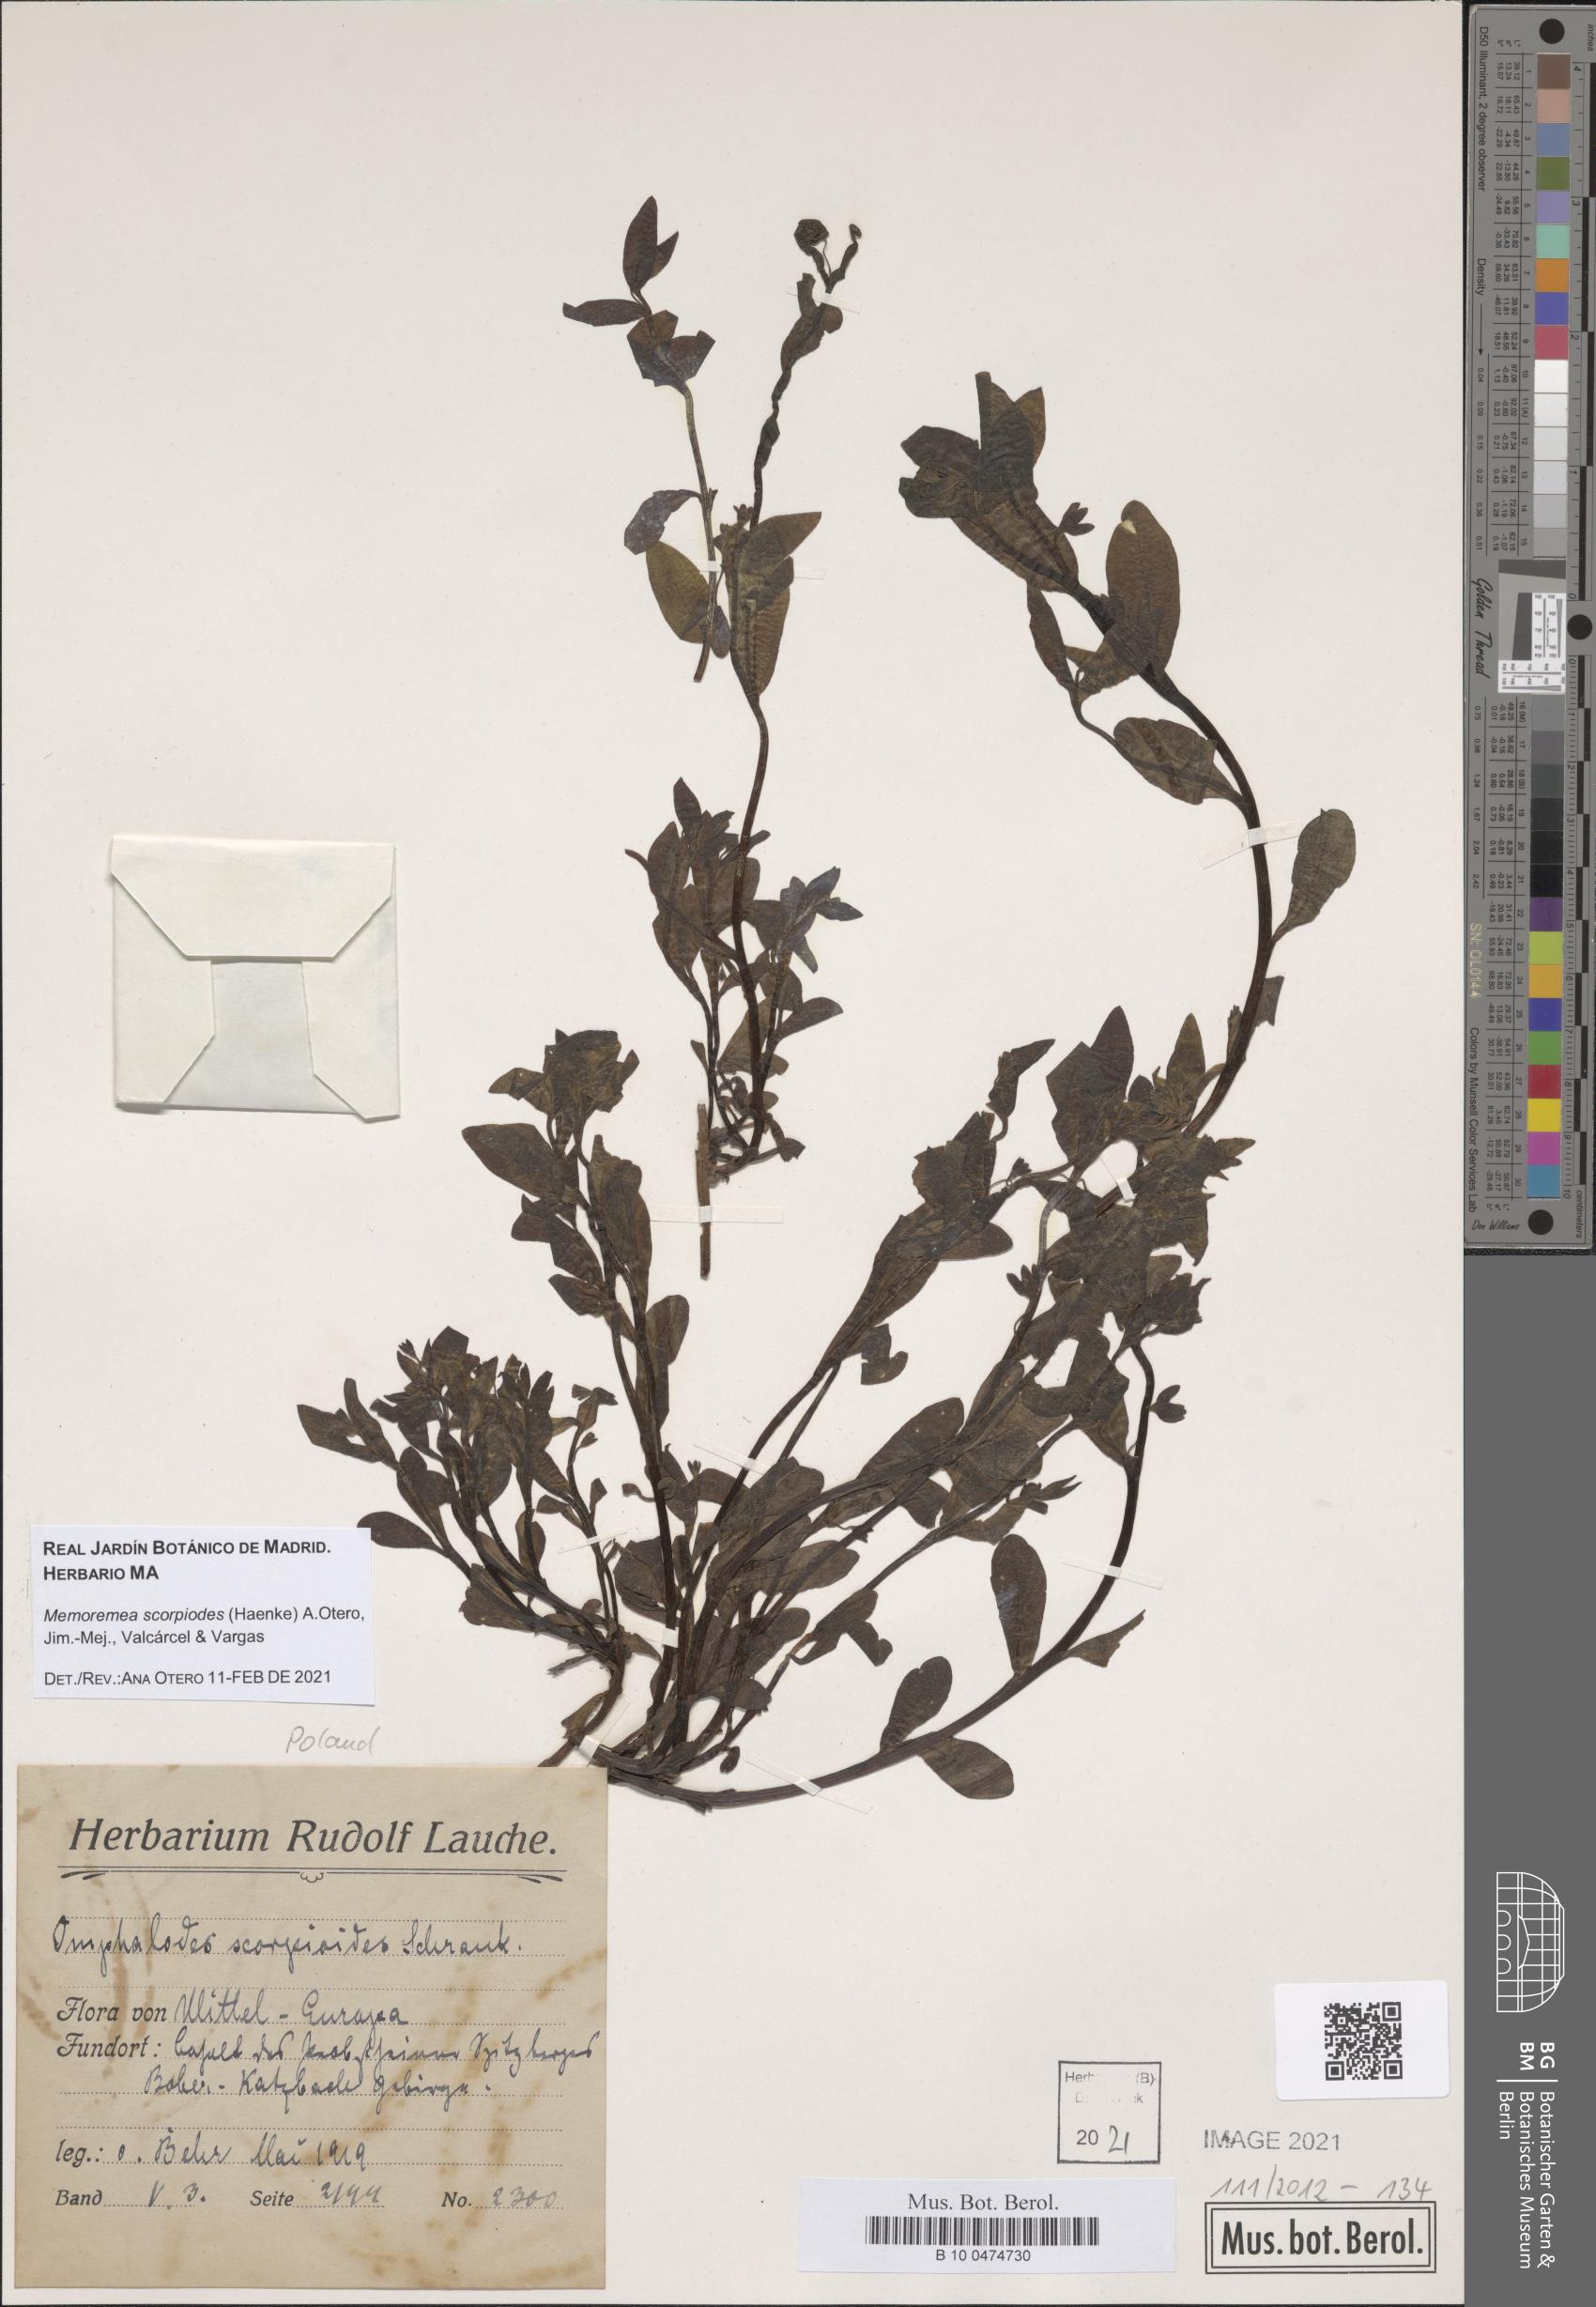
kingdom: Plantae
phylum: Tracheophyta
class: Magnoliopsida
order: Boraginales
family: Boraginaceae
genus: Memoremea
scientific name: Memoremea scorpioides
